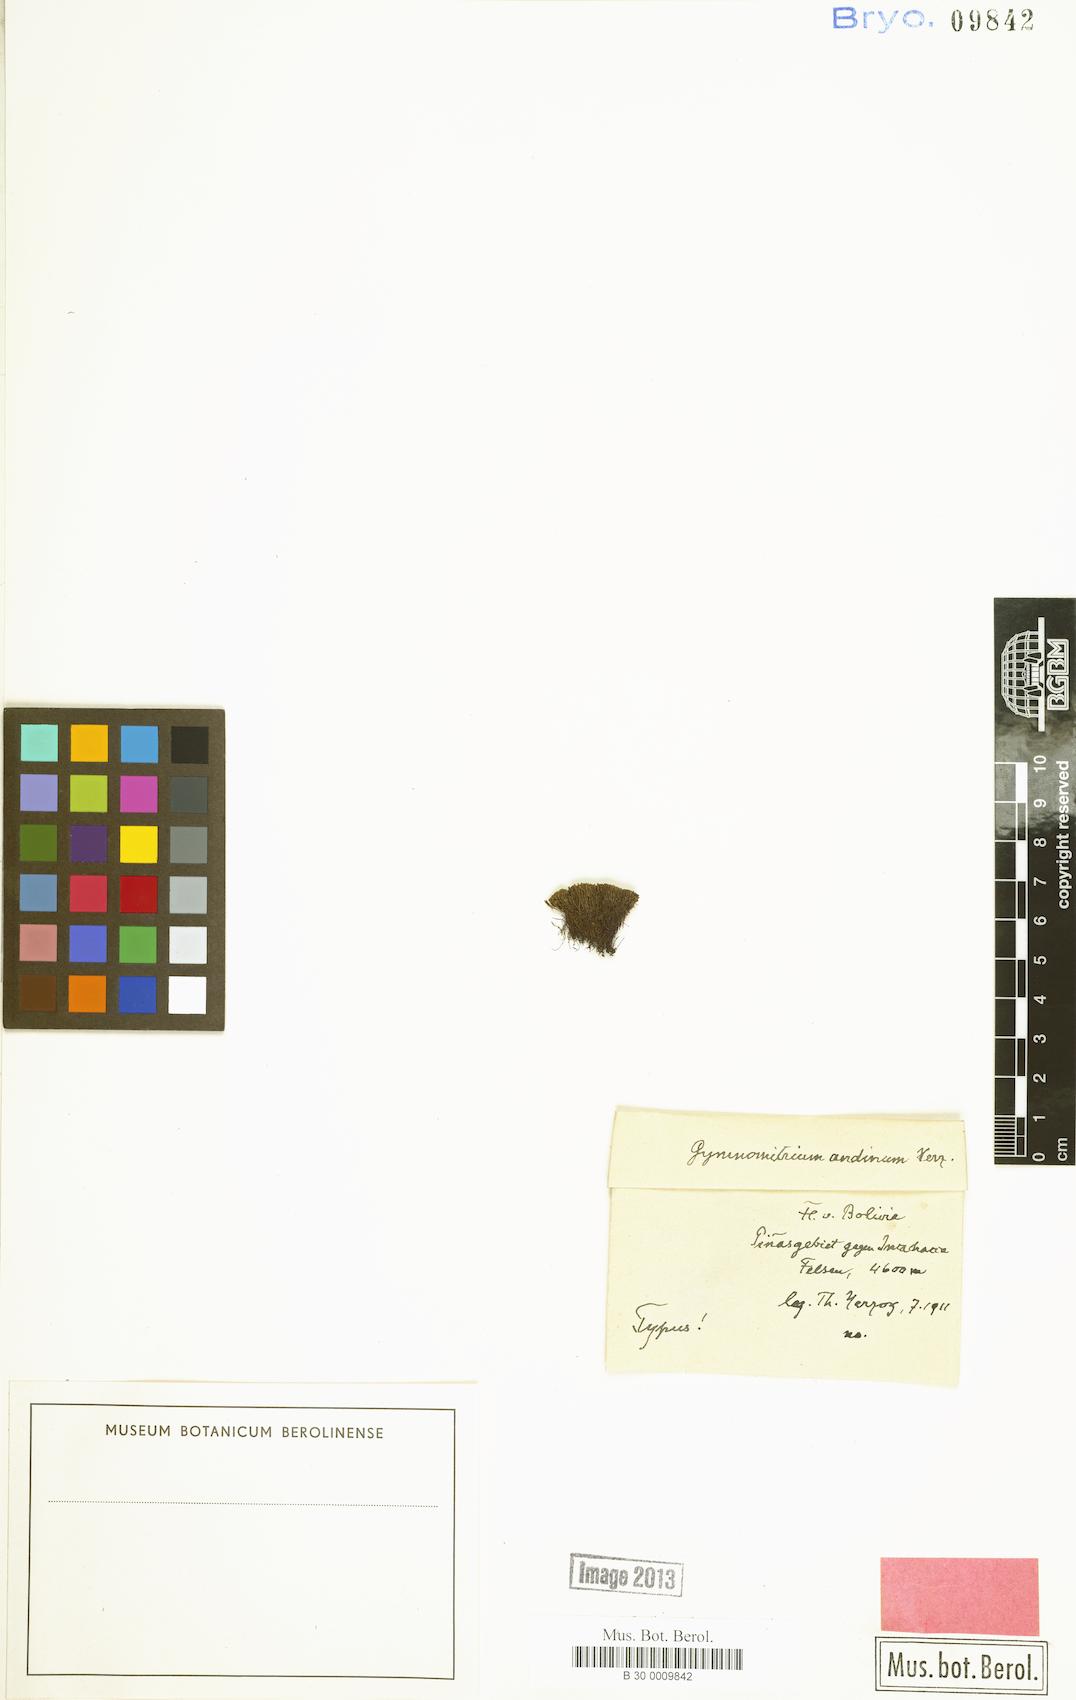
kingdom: Plantae
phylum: Marchantiophyta
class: Jungermanniopsida
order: Jungermanniales
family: Gymnomitriaceae
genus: Gymnomitrion
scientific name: Gymnomitrion bolivianum
